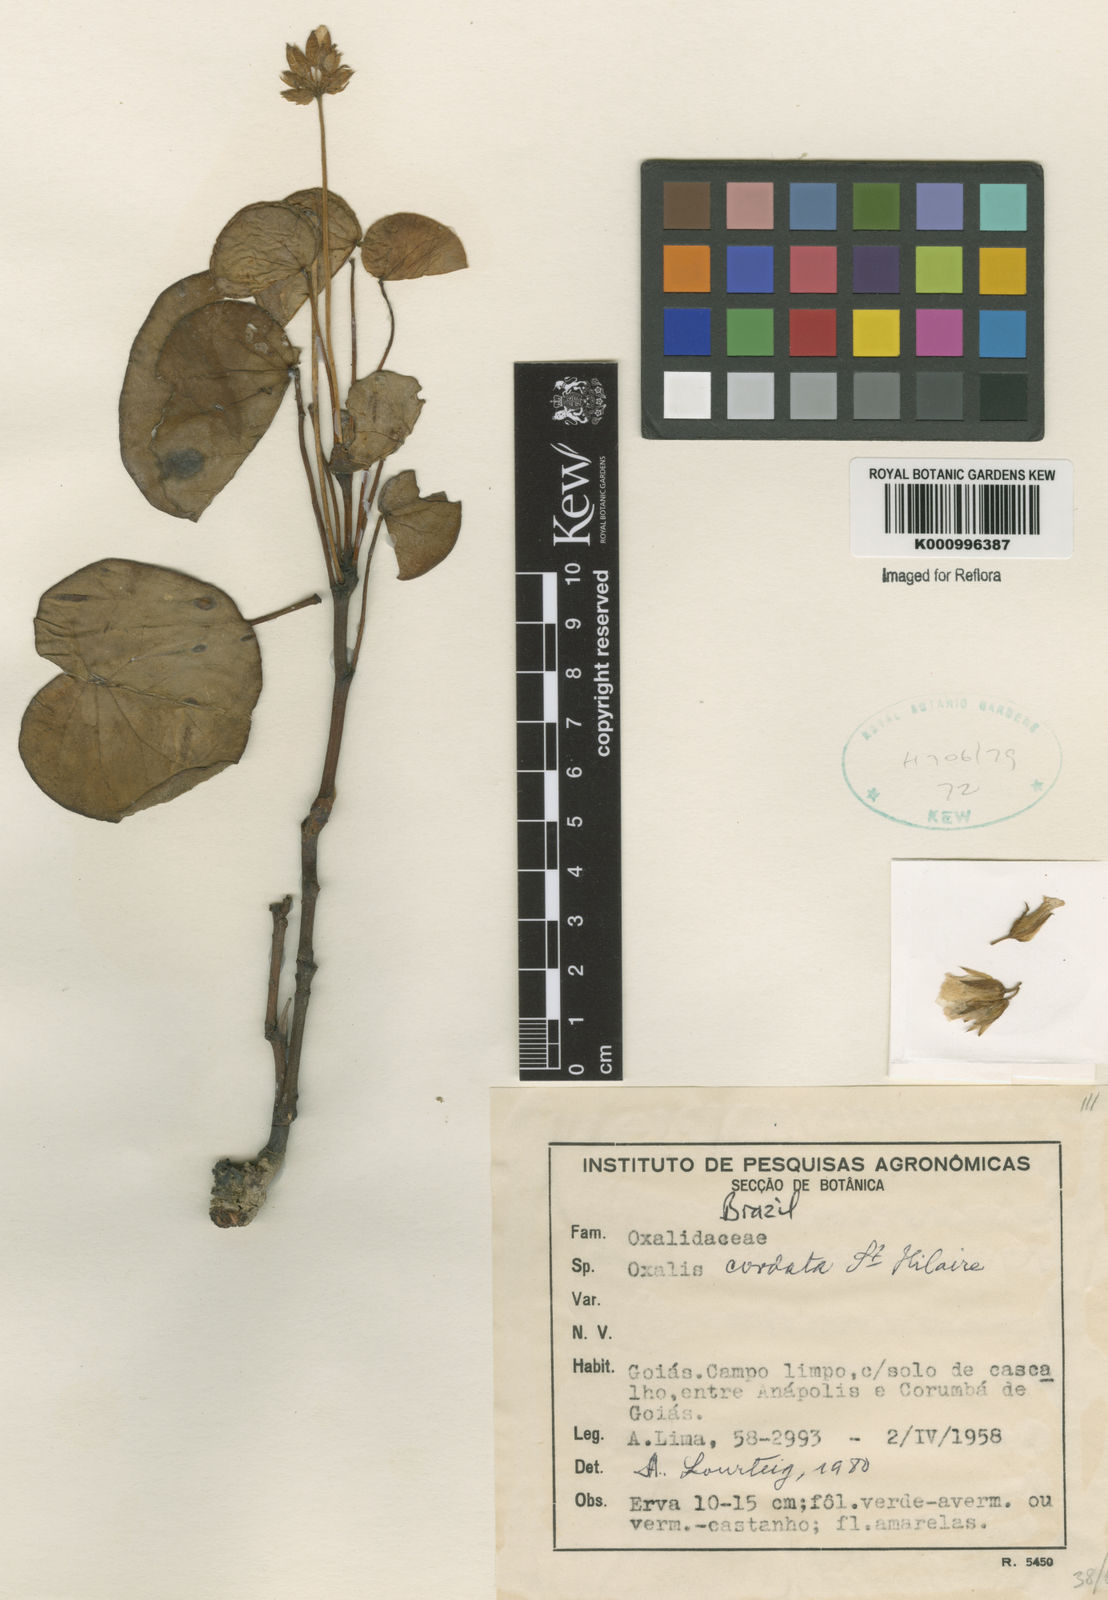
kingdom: Plantae
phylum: Tracheophyta
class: Magnoliopsida
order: Oxalidales
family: Oxalidaceae
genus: Oxalis
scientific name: Oxalis cordata
